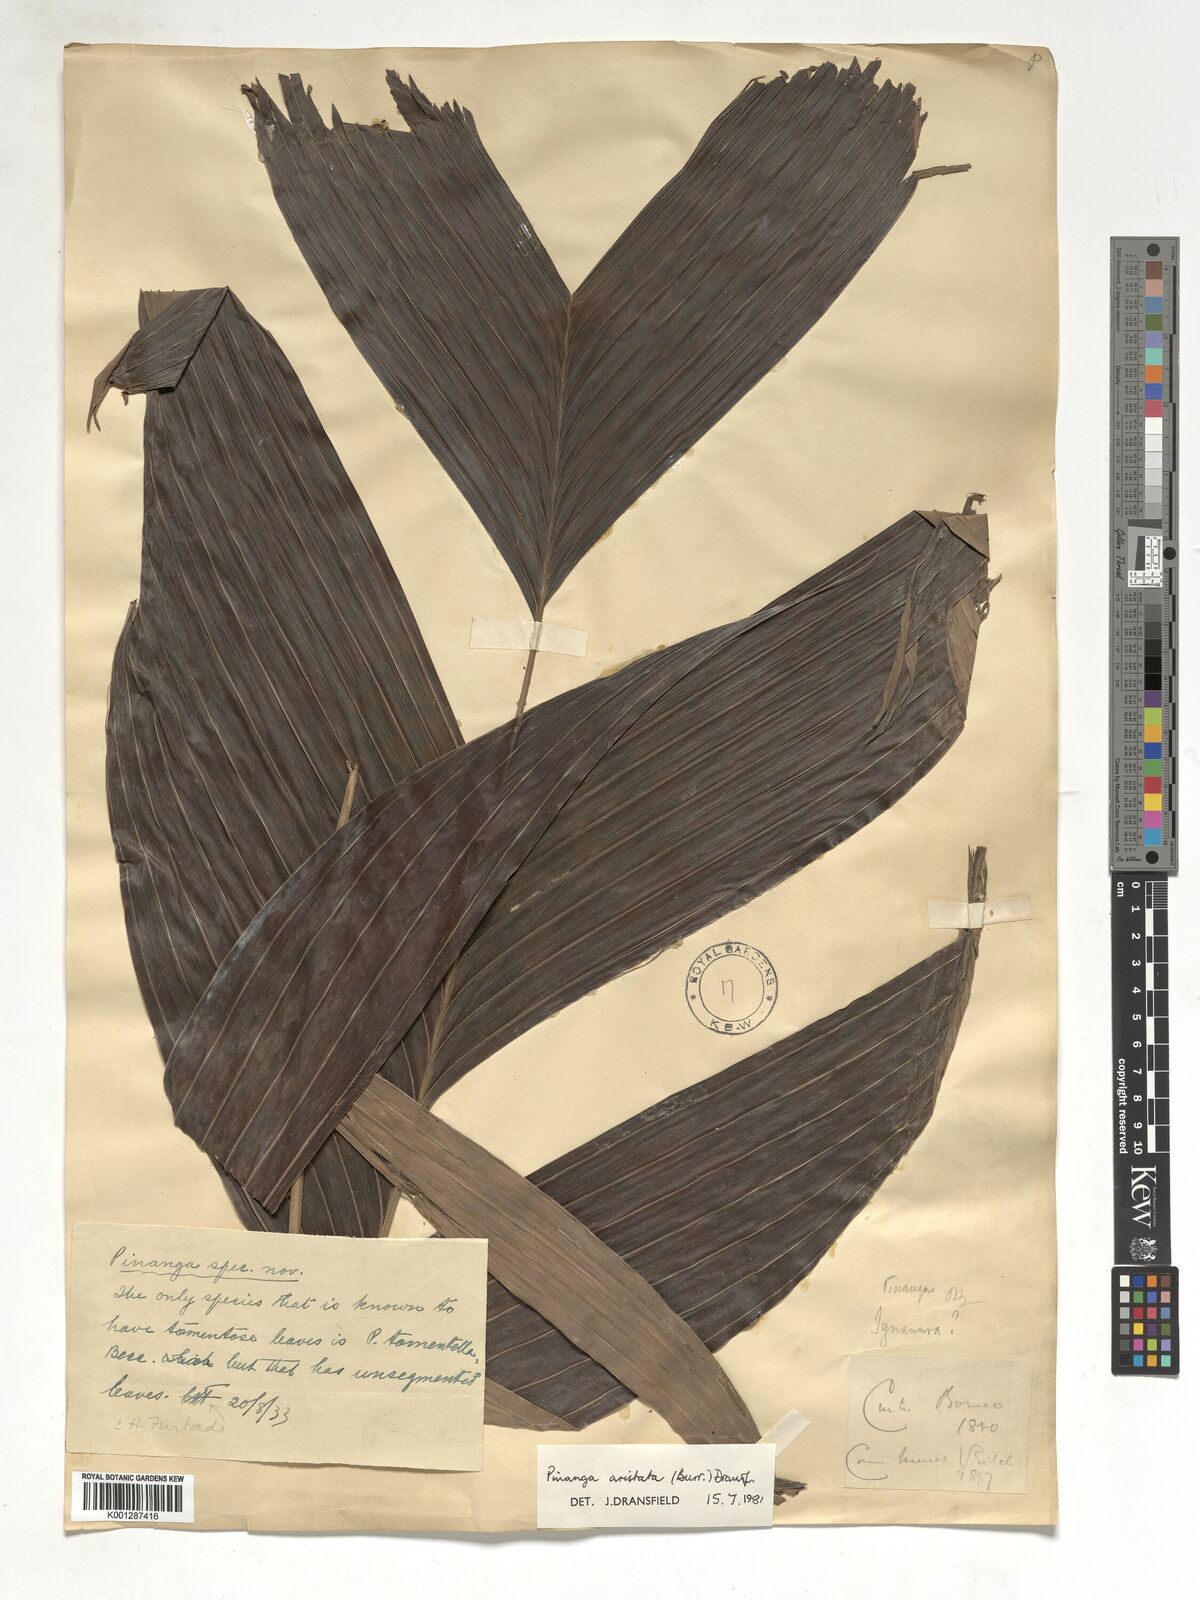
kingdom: Plantae
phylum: Tracheophyta
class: Liliopsida
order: Arecales
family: Arecaceae
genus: Pinanga
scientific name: Pinanga aristata
